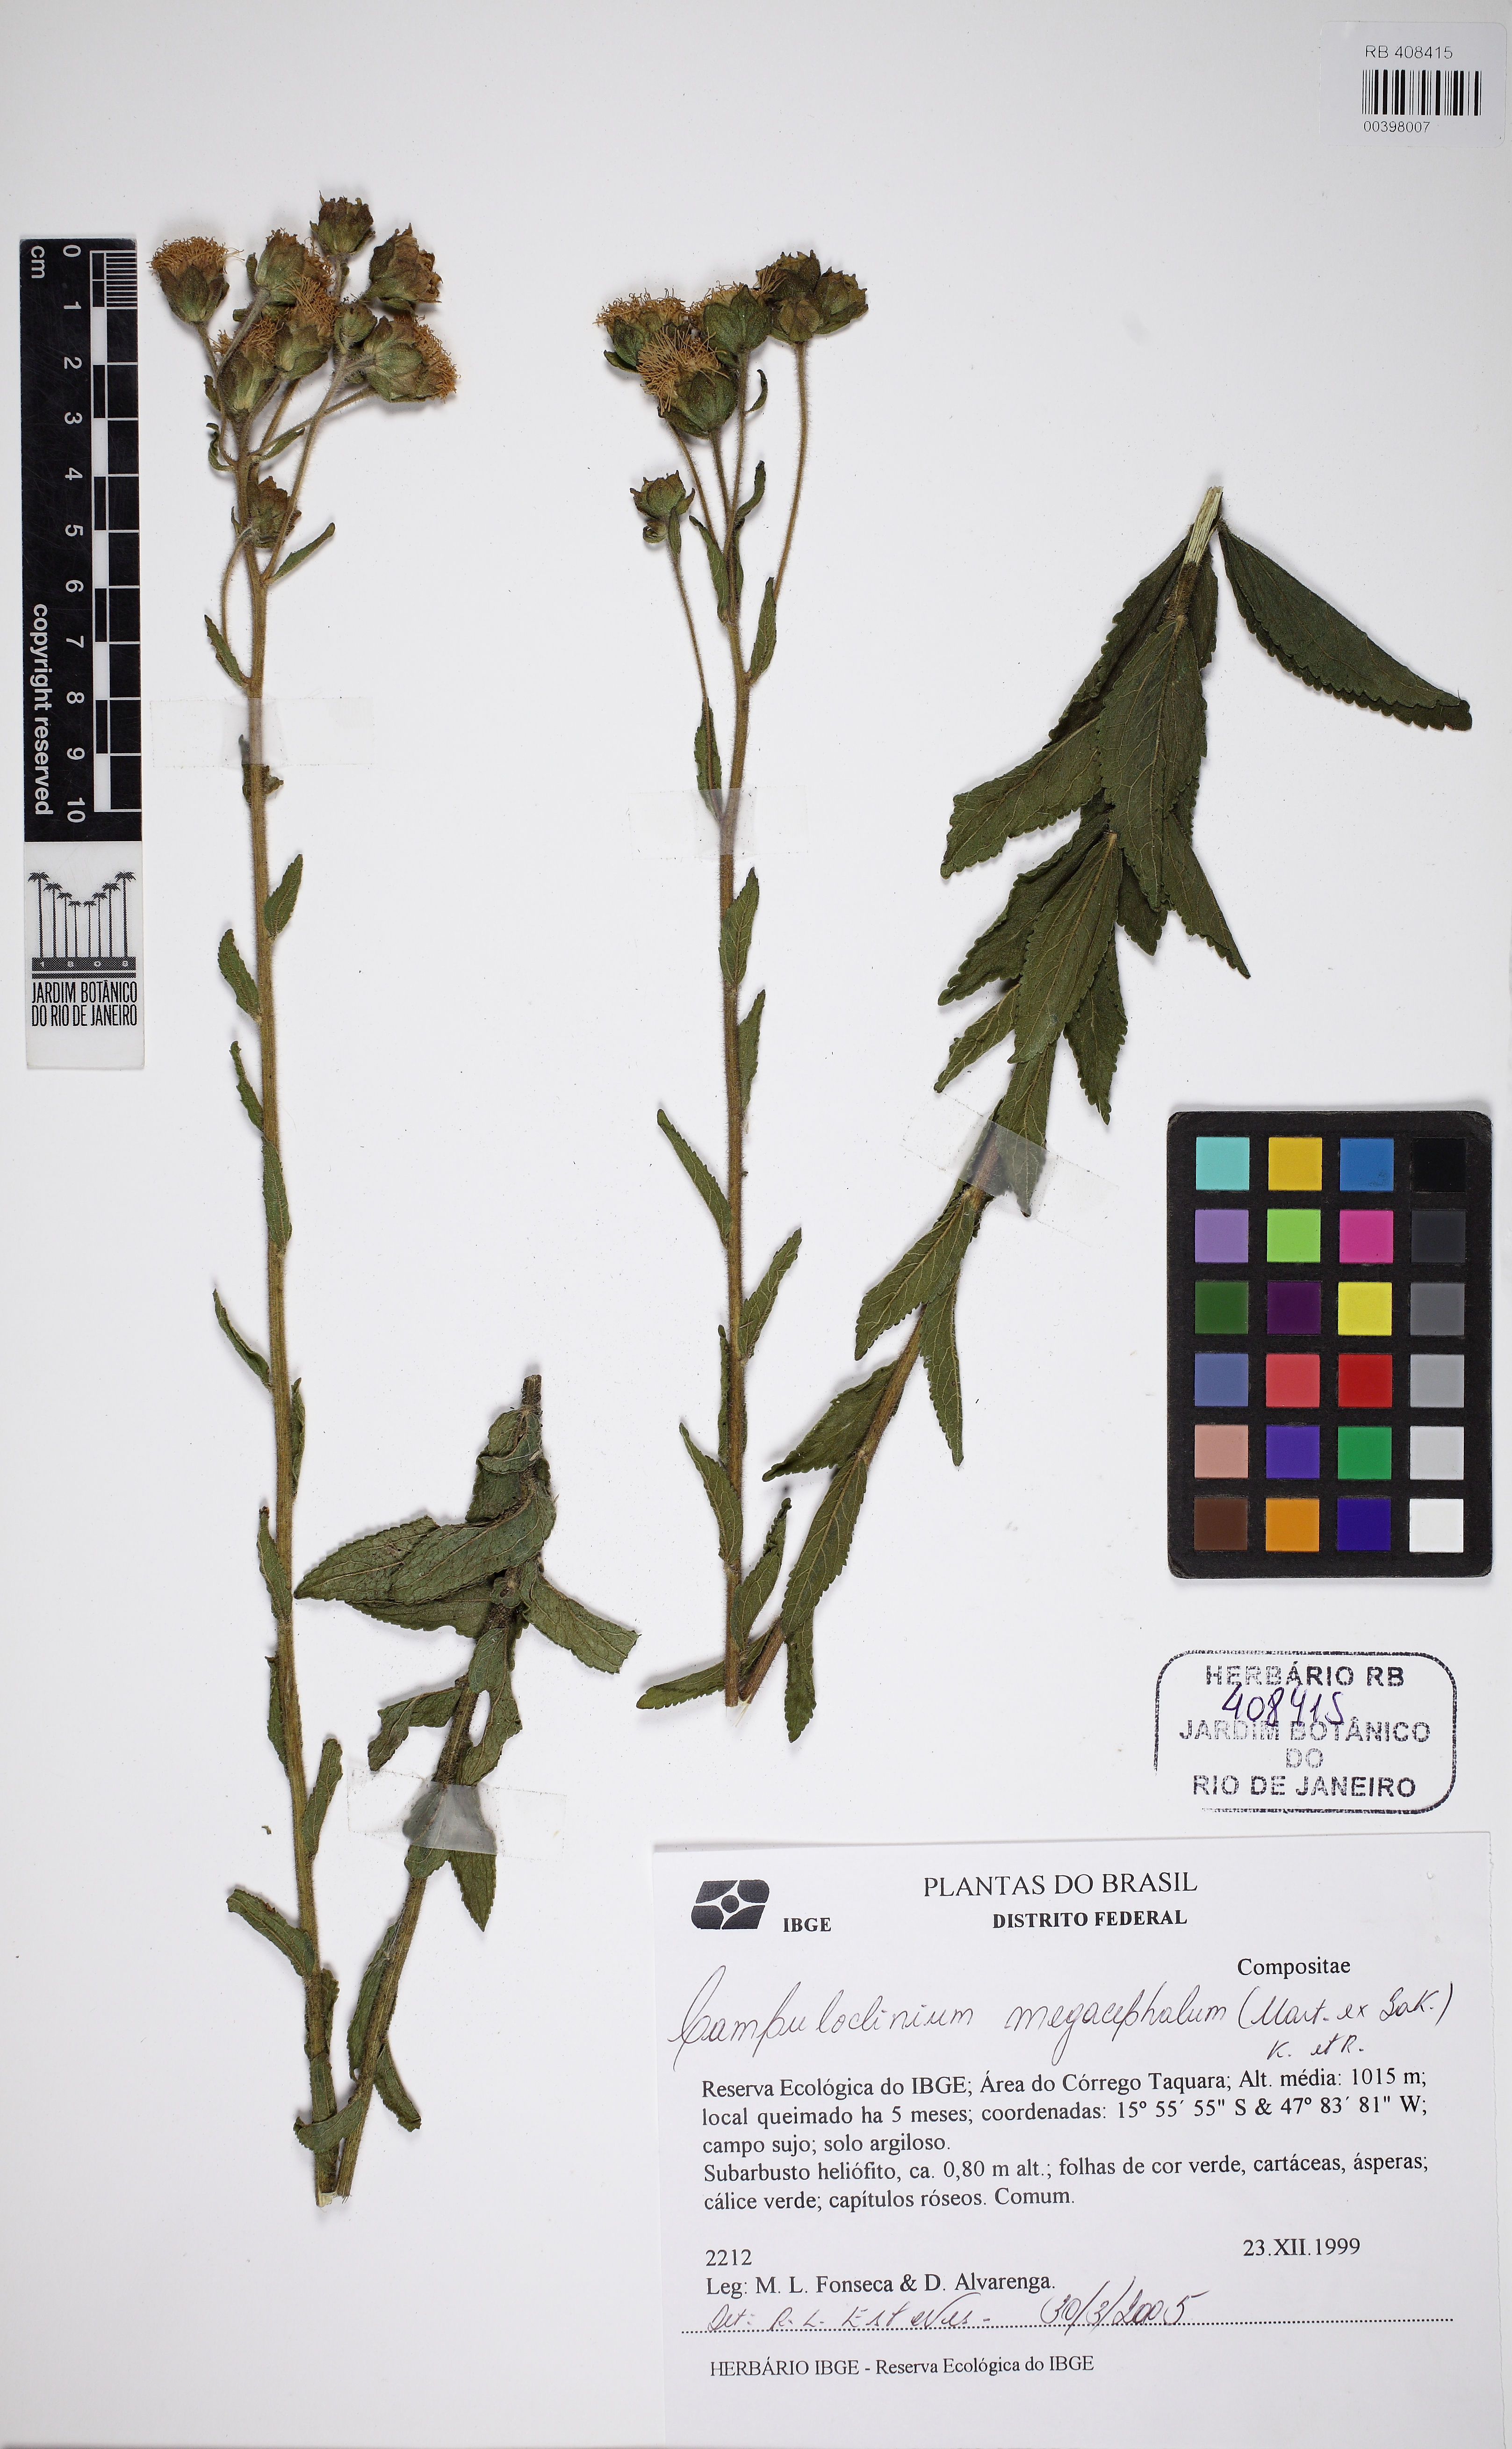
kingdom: Plantae
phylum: Tracheophyta
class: Magnoliopsida
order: Asterales
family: Asteraceae
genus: Campuloclinium
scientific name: Campuloclinium megacephalum
